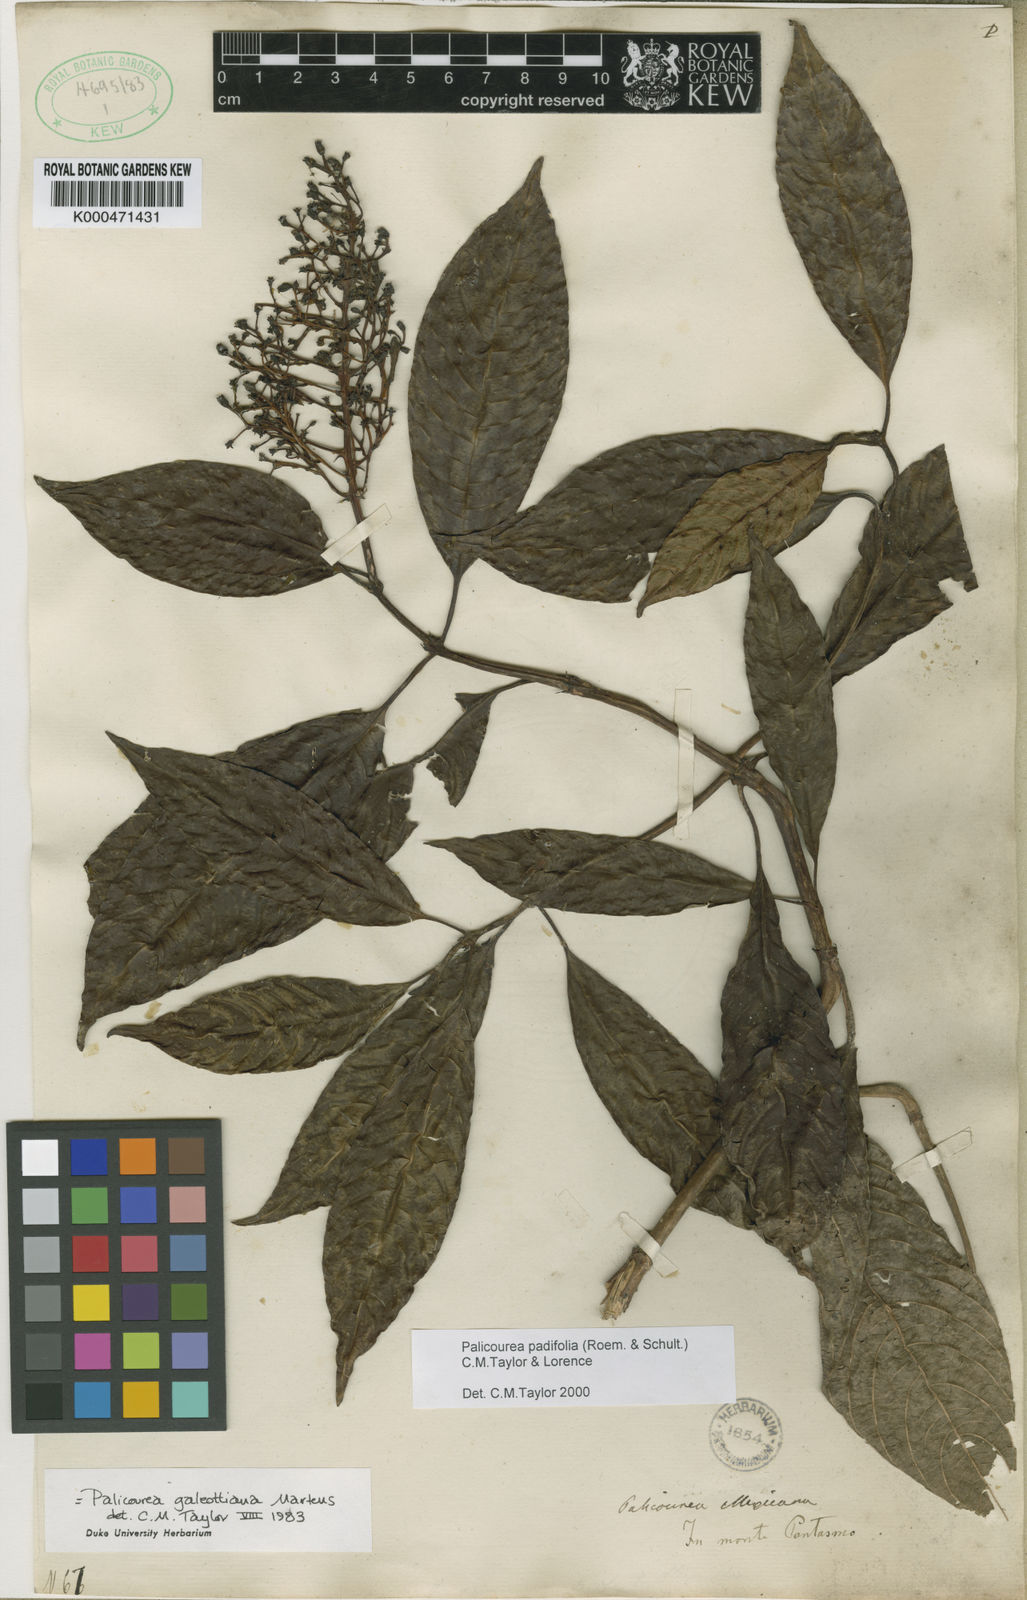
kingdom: Plantae
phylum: Tracheophyta
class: Magnoliopsida
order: Gentianales
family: Rubiaceae
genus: Palicourea
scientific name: Palicourea padifolia
